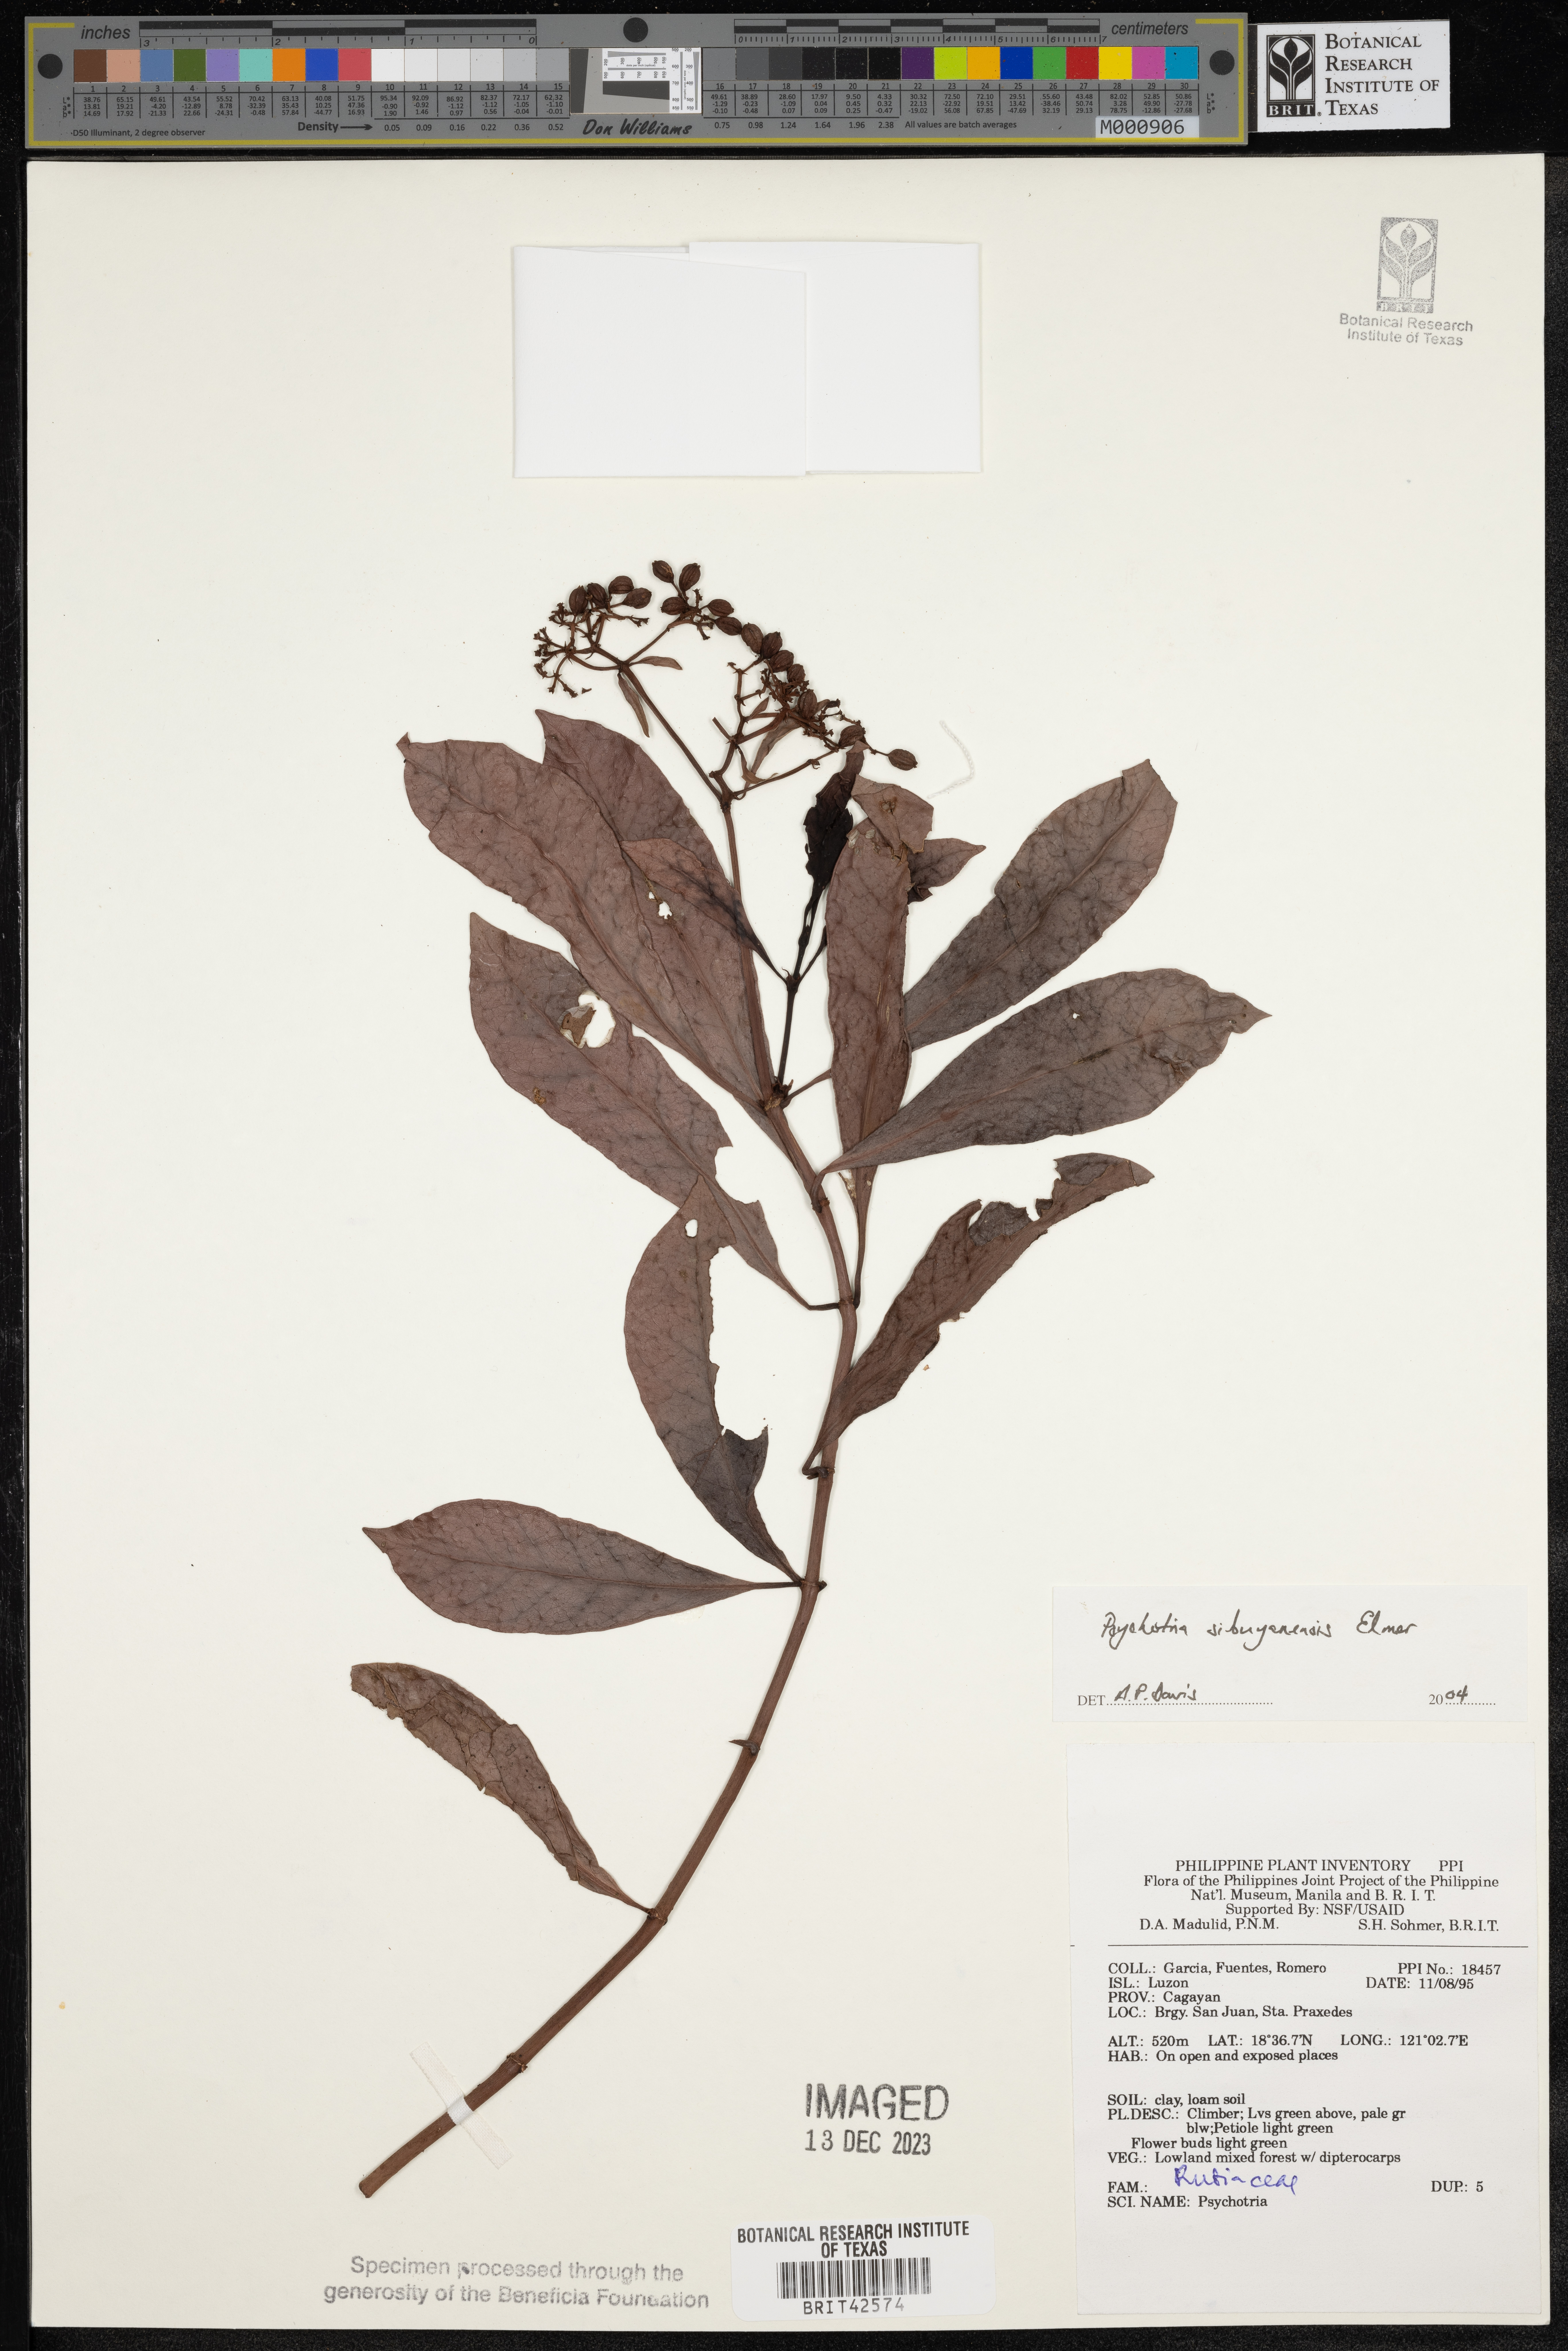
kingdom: Plantae
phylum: Tracheophyta
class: Magnoliopsida
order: Gentianales
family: Rubiaceae
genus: Psychotria
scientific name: Psychotria sibuyanensis
